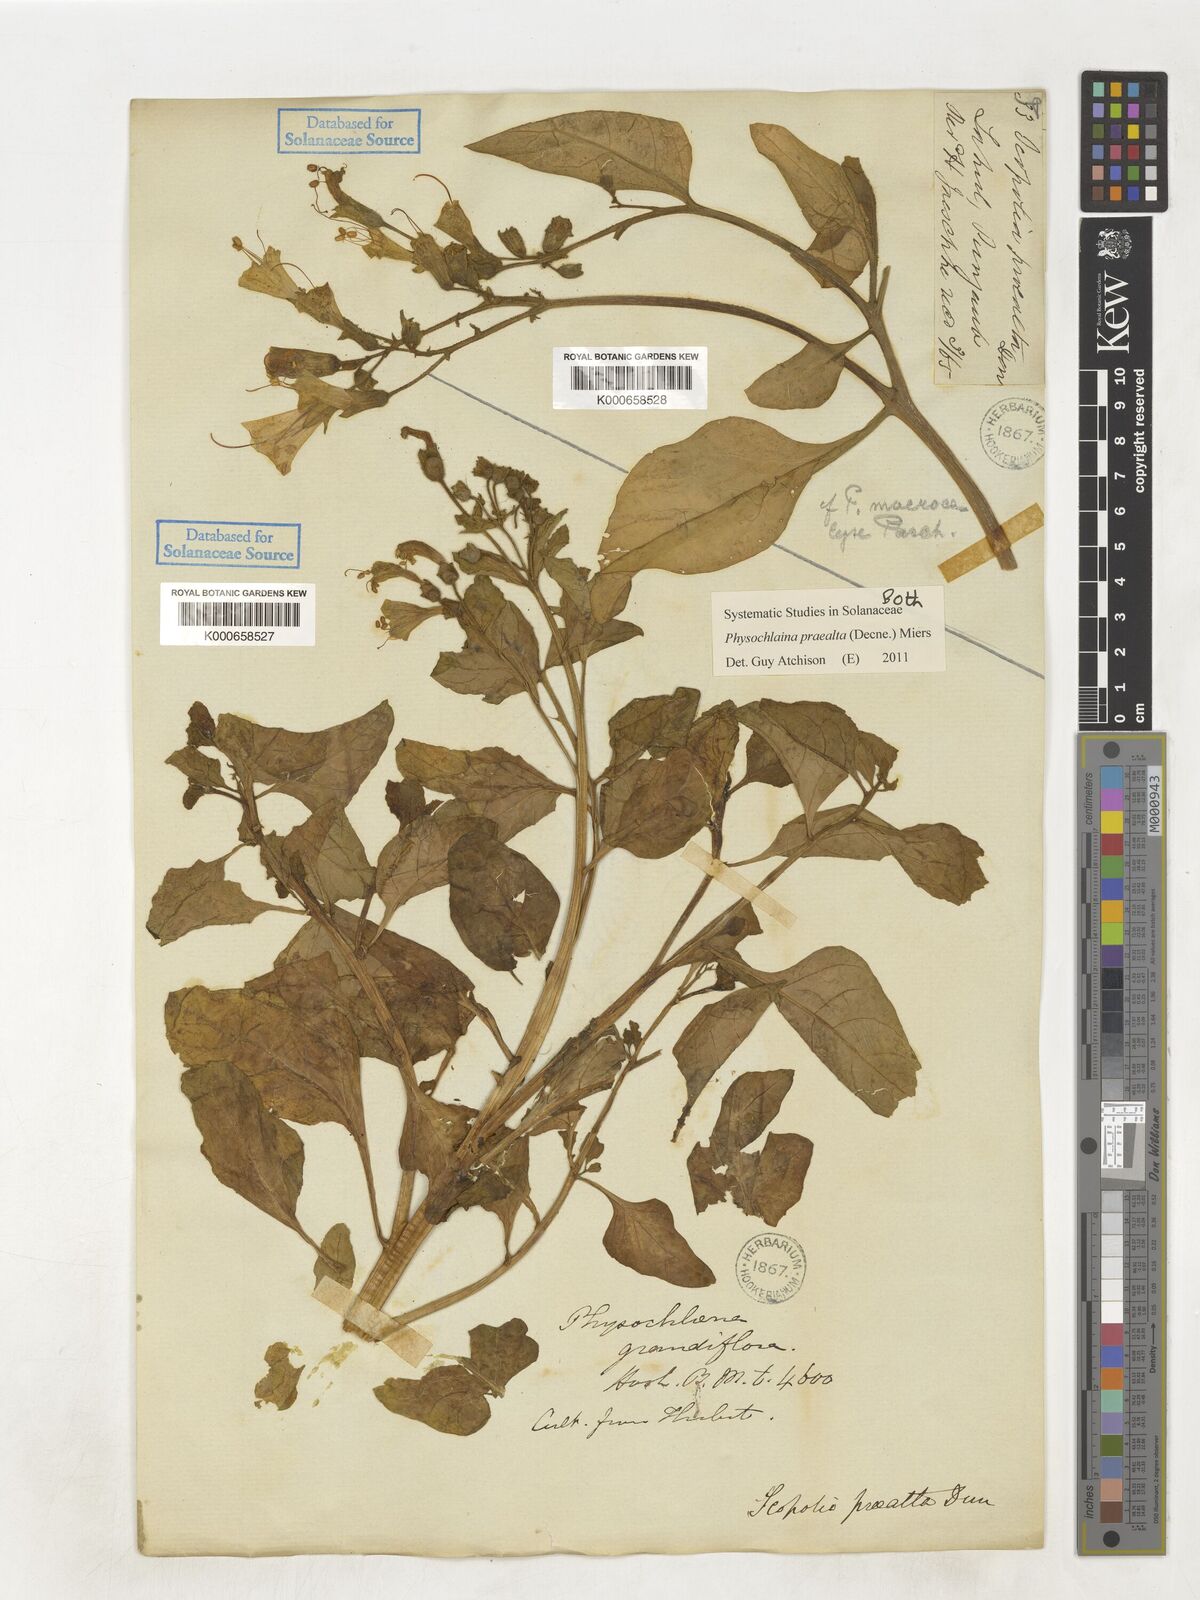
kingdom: Plantae
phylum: Tracheophyta
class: Magnoliopsida
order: Solanales
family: Solanaceae
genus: Physochlaina
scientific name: Physochlaina praealta
